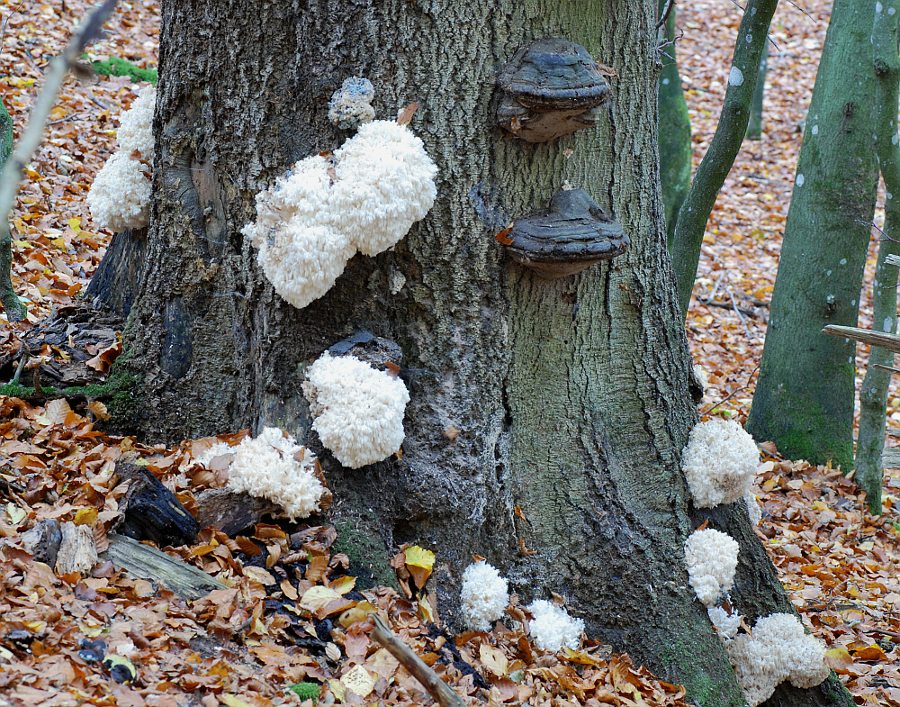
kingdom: Fungi
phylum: Basidiomycota
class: Agaricomycetes
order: Russulales
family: Hericiaceae
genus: Hericium
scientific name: Hericium coralloides
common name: koralpigsvamp
